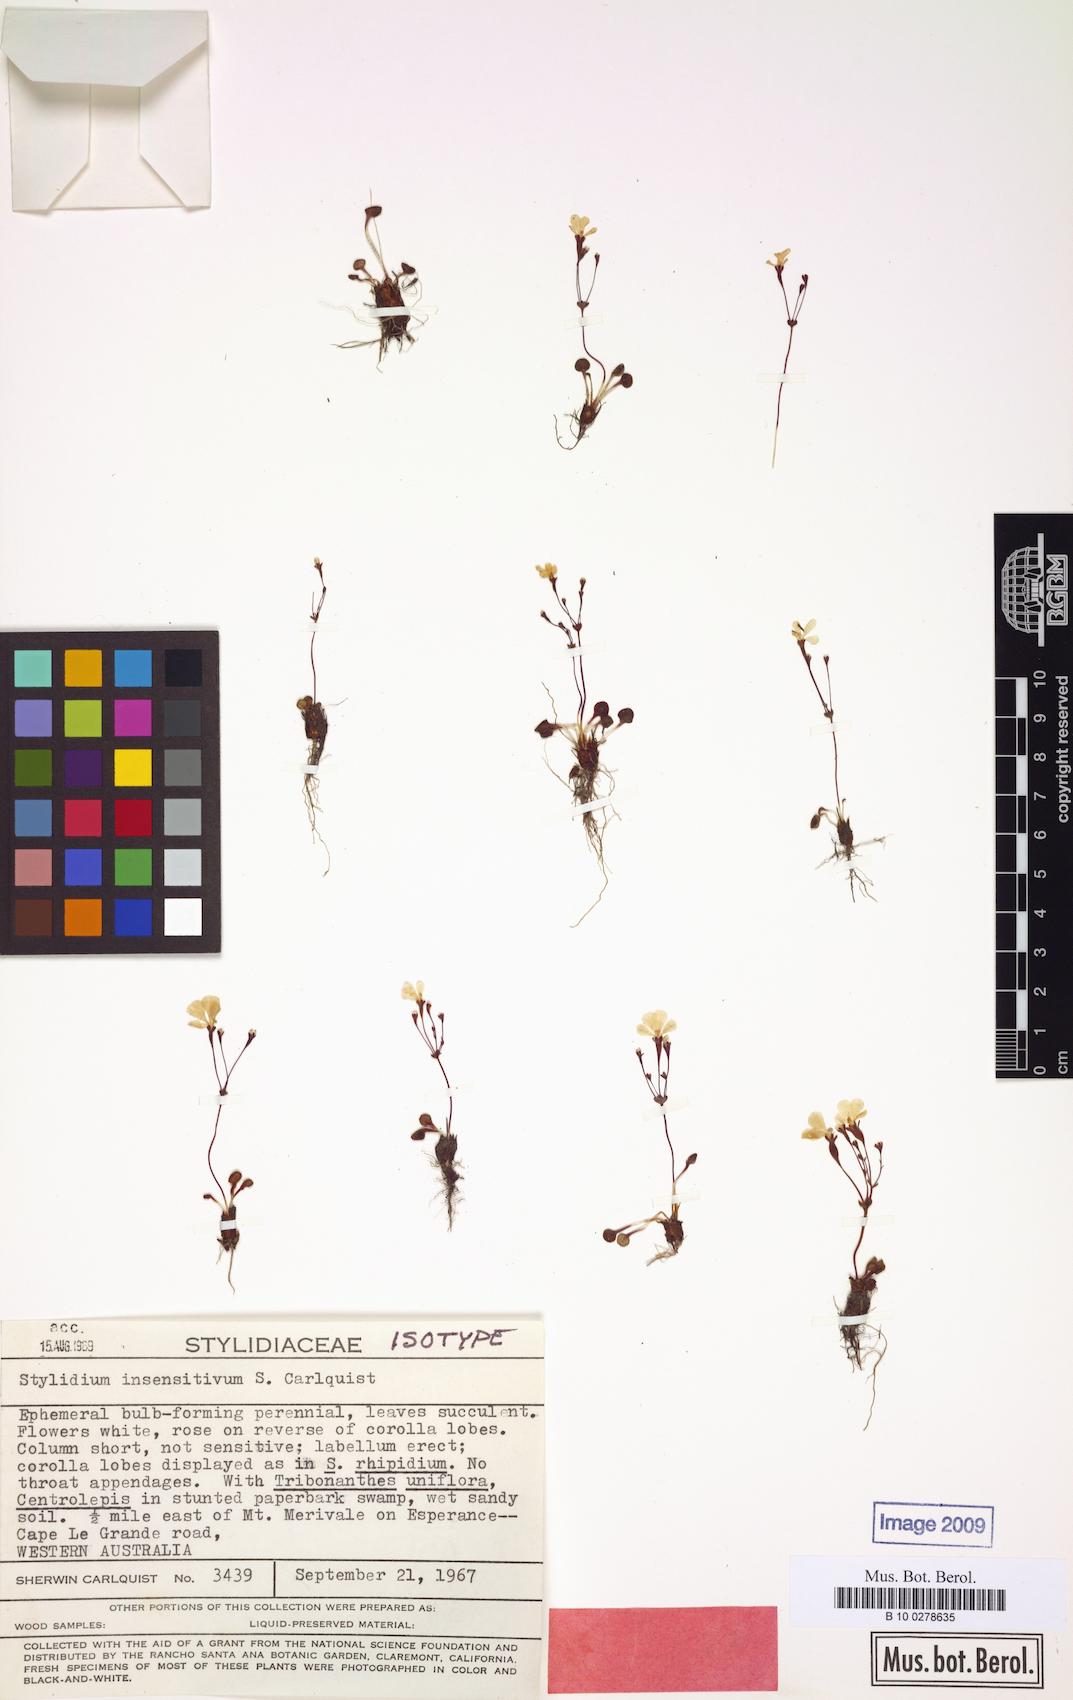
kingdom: Plantae
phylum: Tracheophyta
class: Magnoliopsida
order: Asterales
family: Stylidiaceae
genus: Stylidium
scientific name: Stylidium insensitivum
